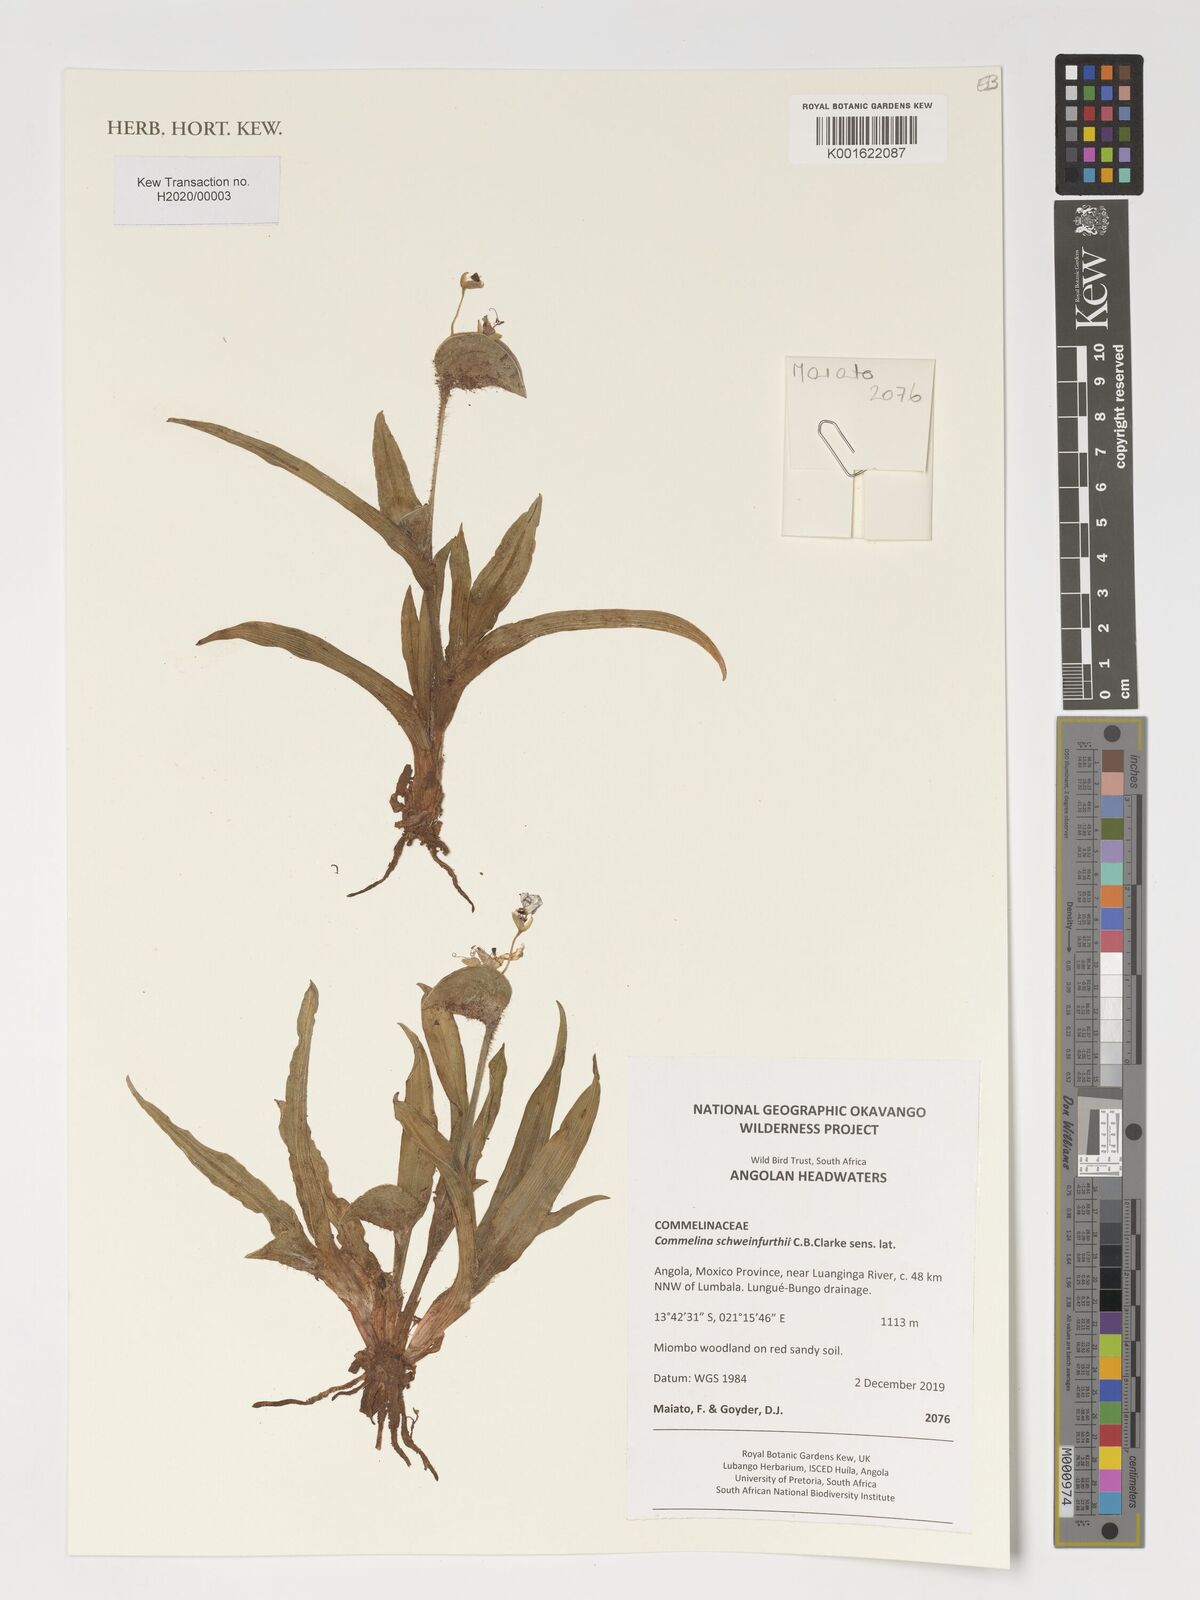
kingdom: Plantae
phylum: Tracheophyta
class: Liliopsida
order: Commelinales
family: Commelinaceae
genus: Commelina
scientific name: Commelina schweinfurthii
